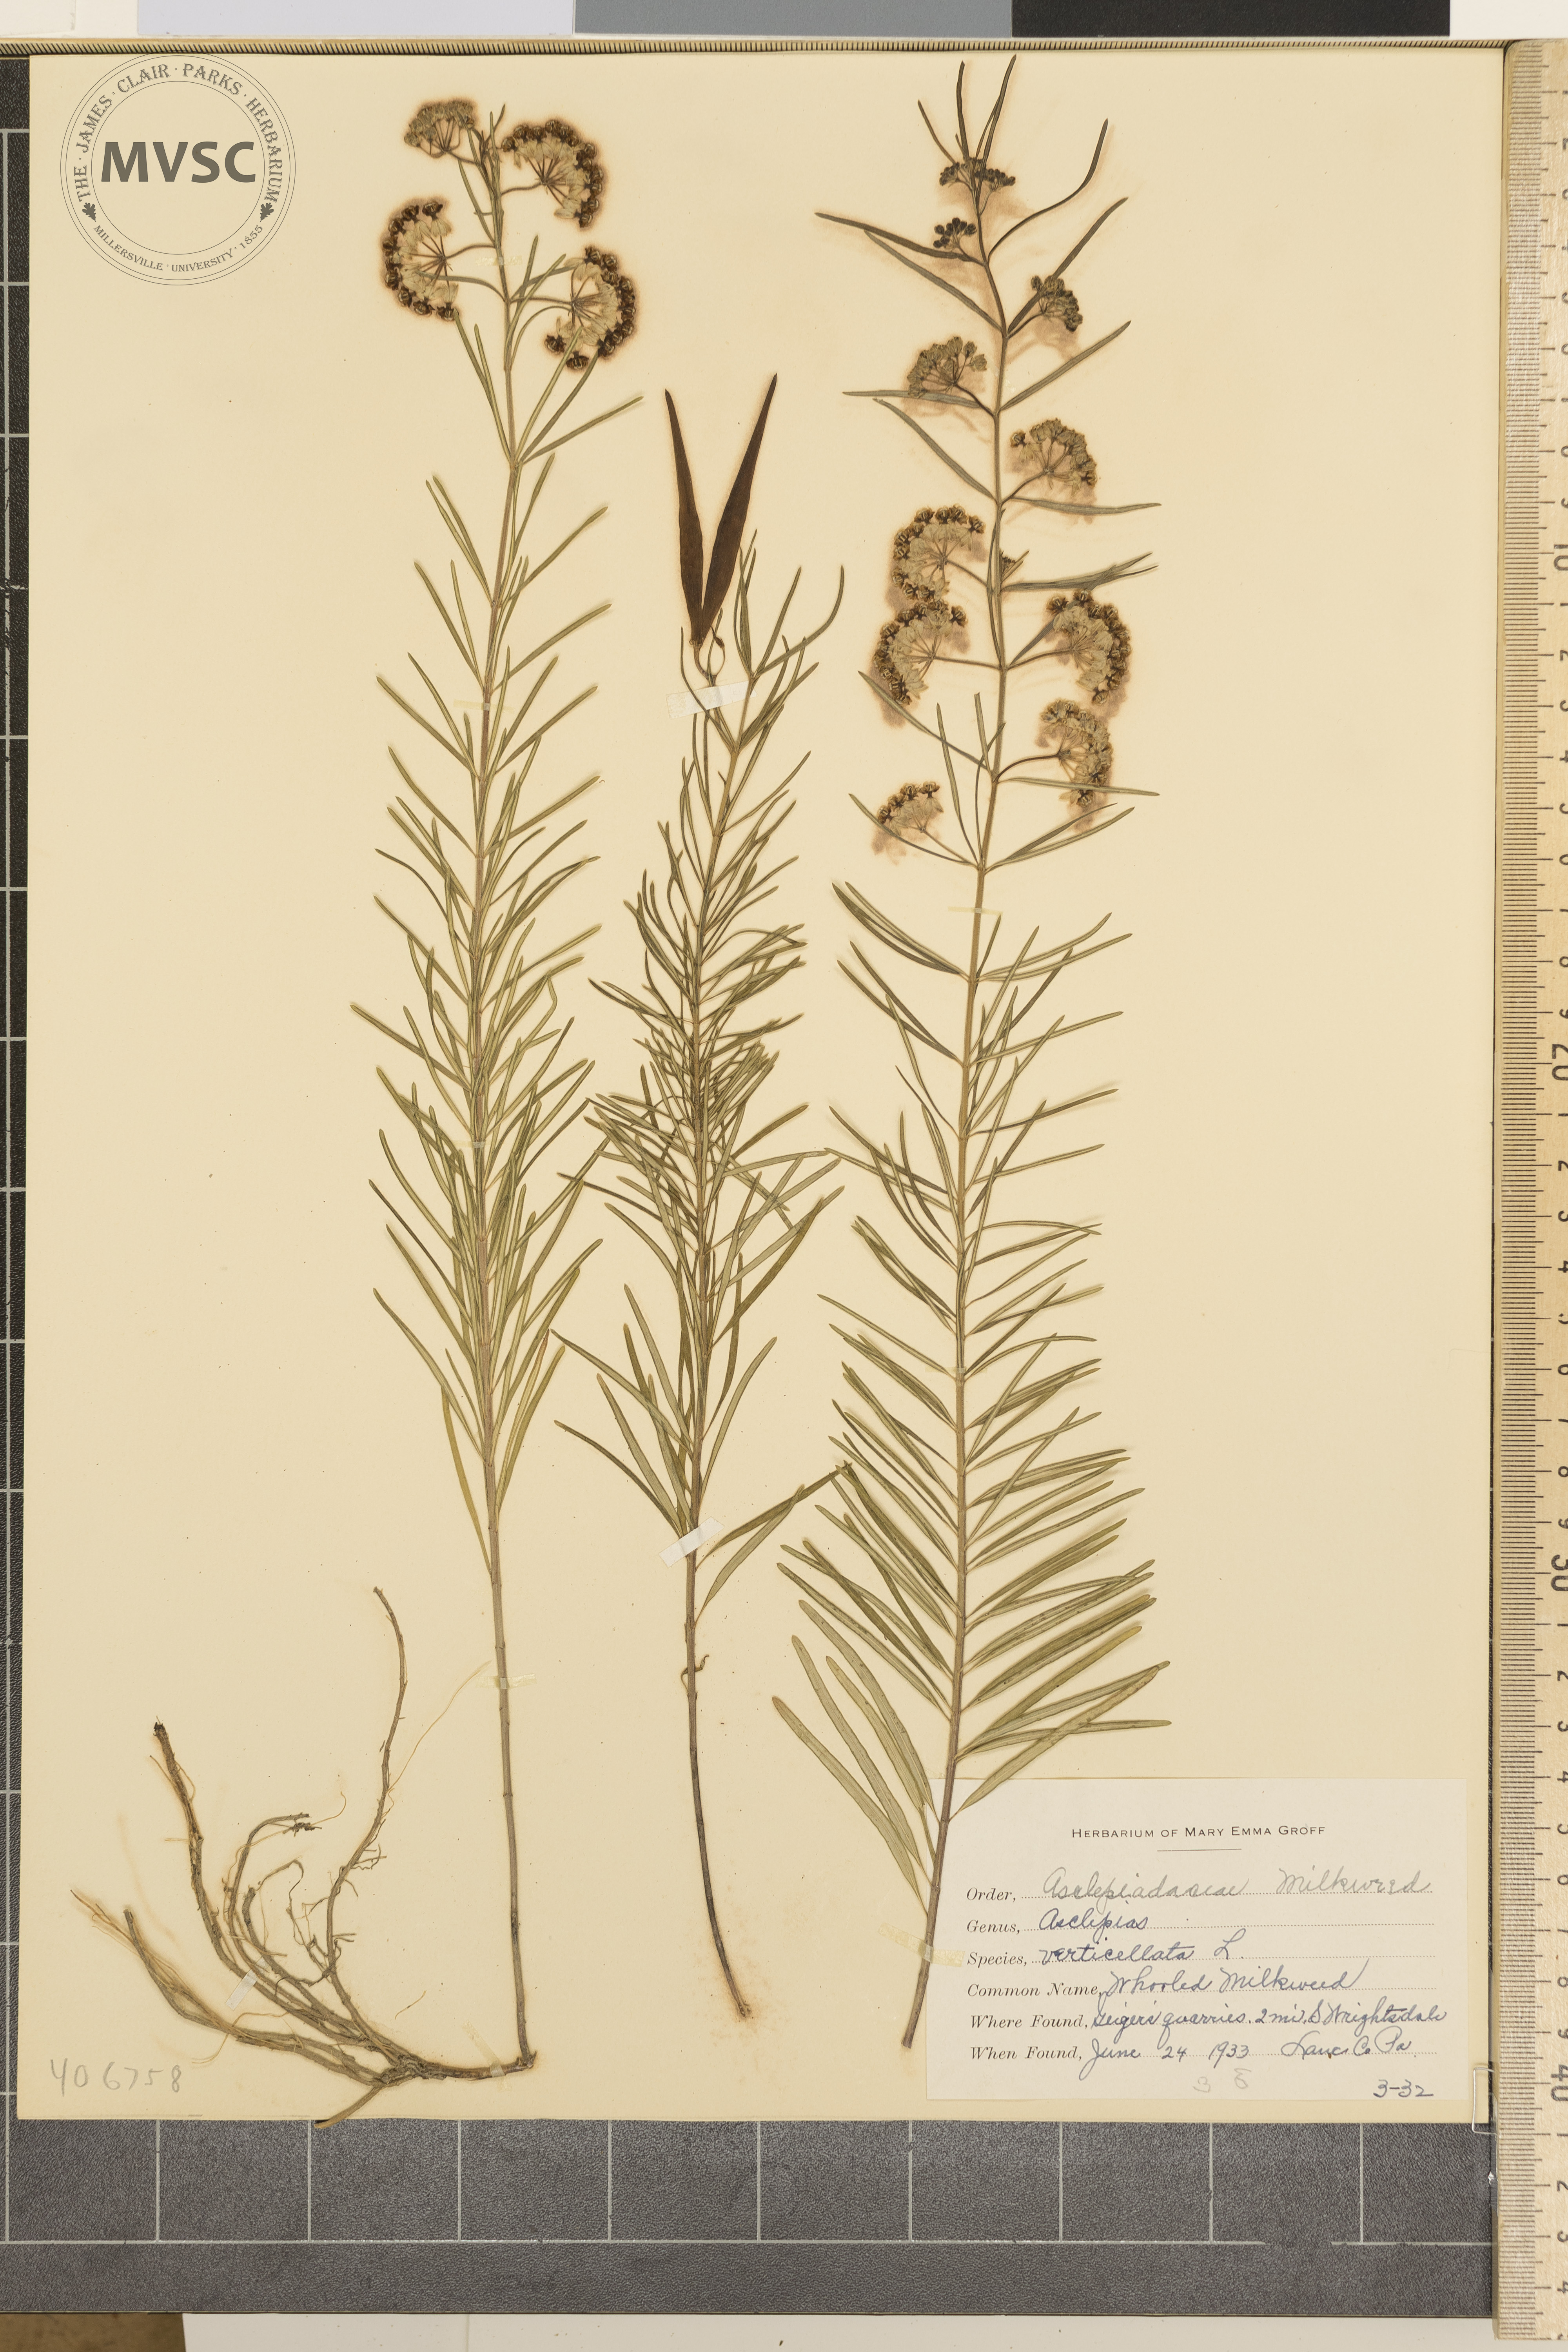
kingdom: Plantae
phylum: Tracheophyta
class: Magnoliopsida
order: Gentianales
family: Apocynaceae
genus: Asclepias
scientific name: Asclepias verticillata
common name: Whorled Milkweed
